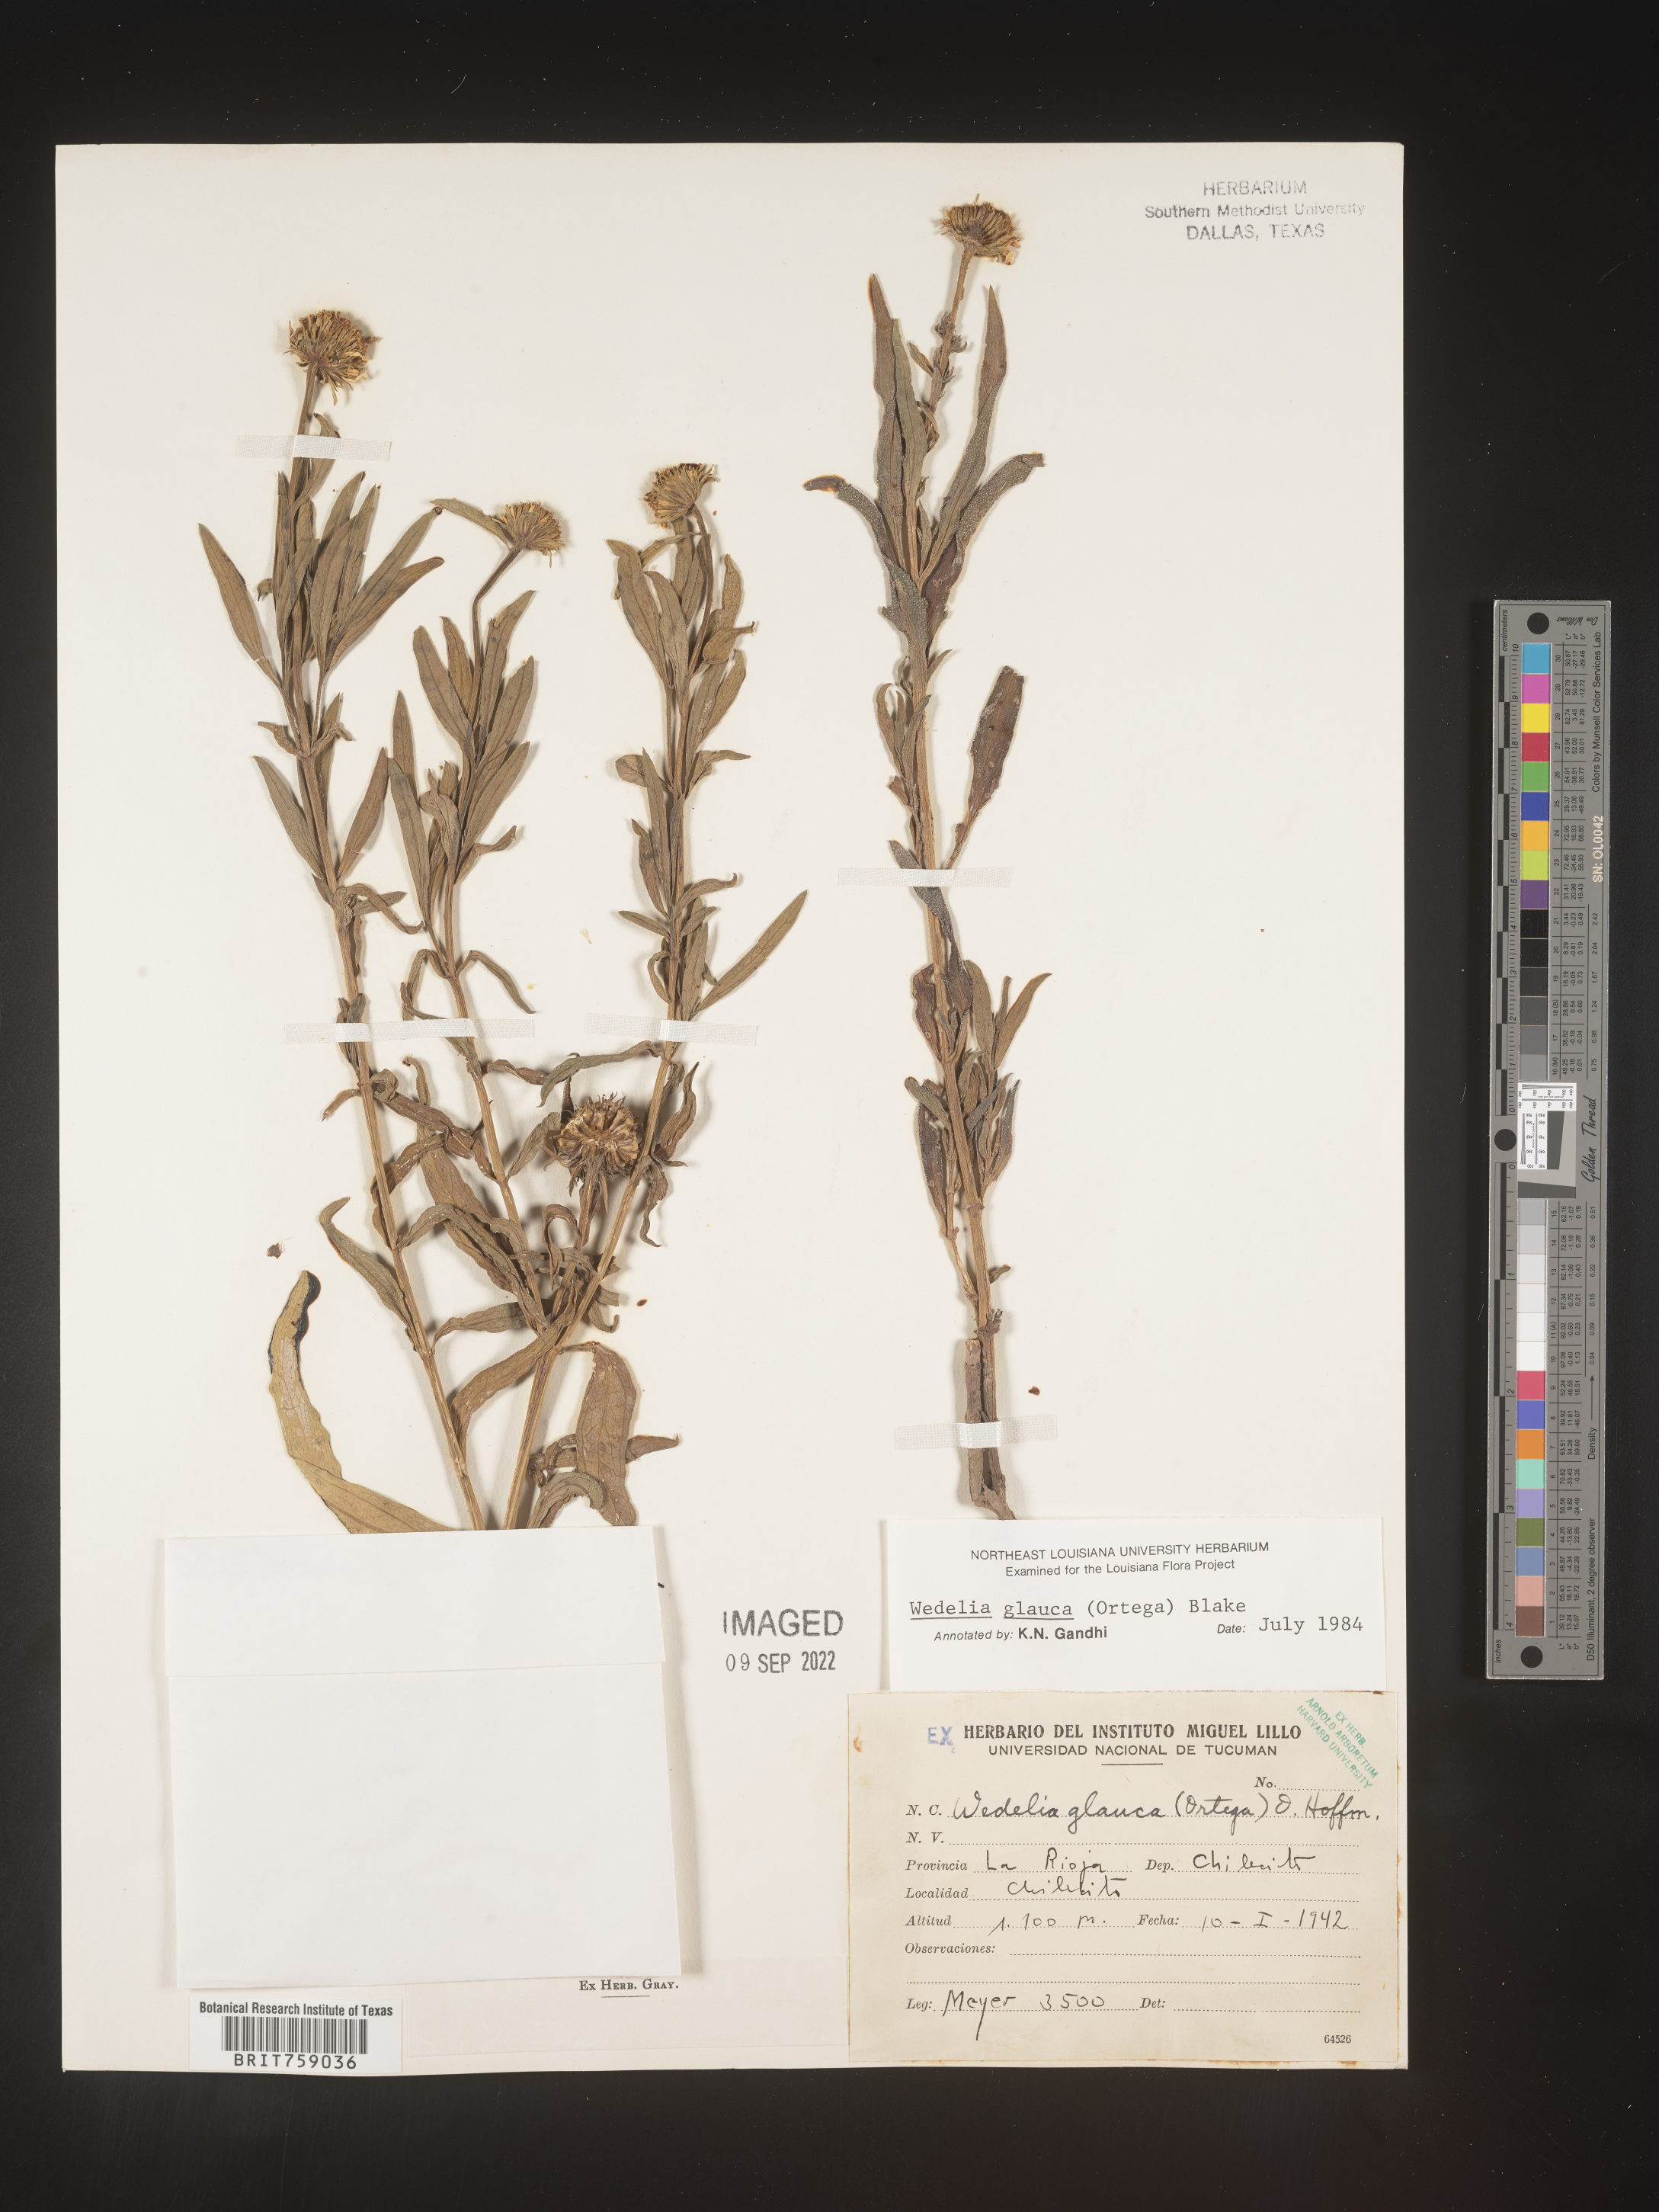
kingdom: Plantae
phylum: Tracheophyta
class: Magnoliopsida
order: Asterales
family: Asteraceae
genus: Wedelia
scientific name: Wedelia
